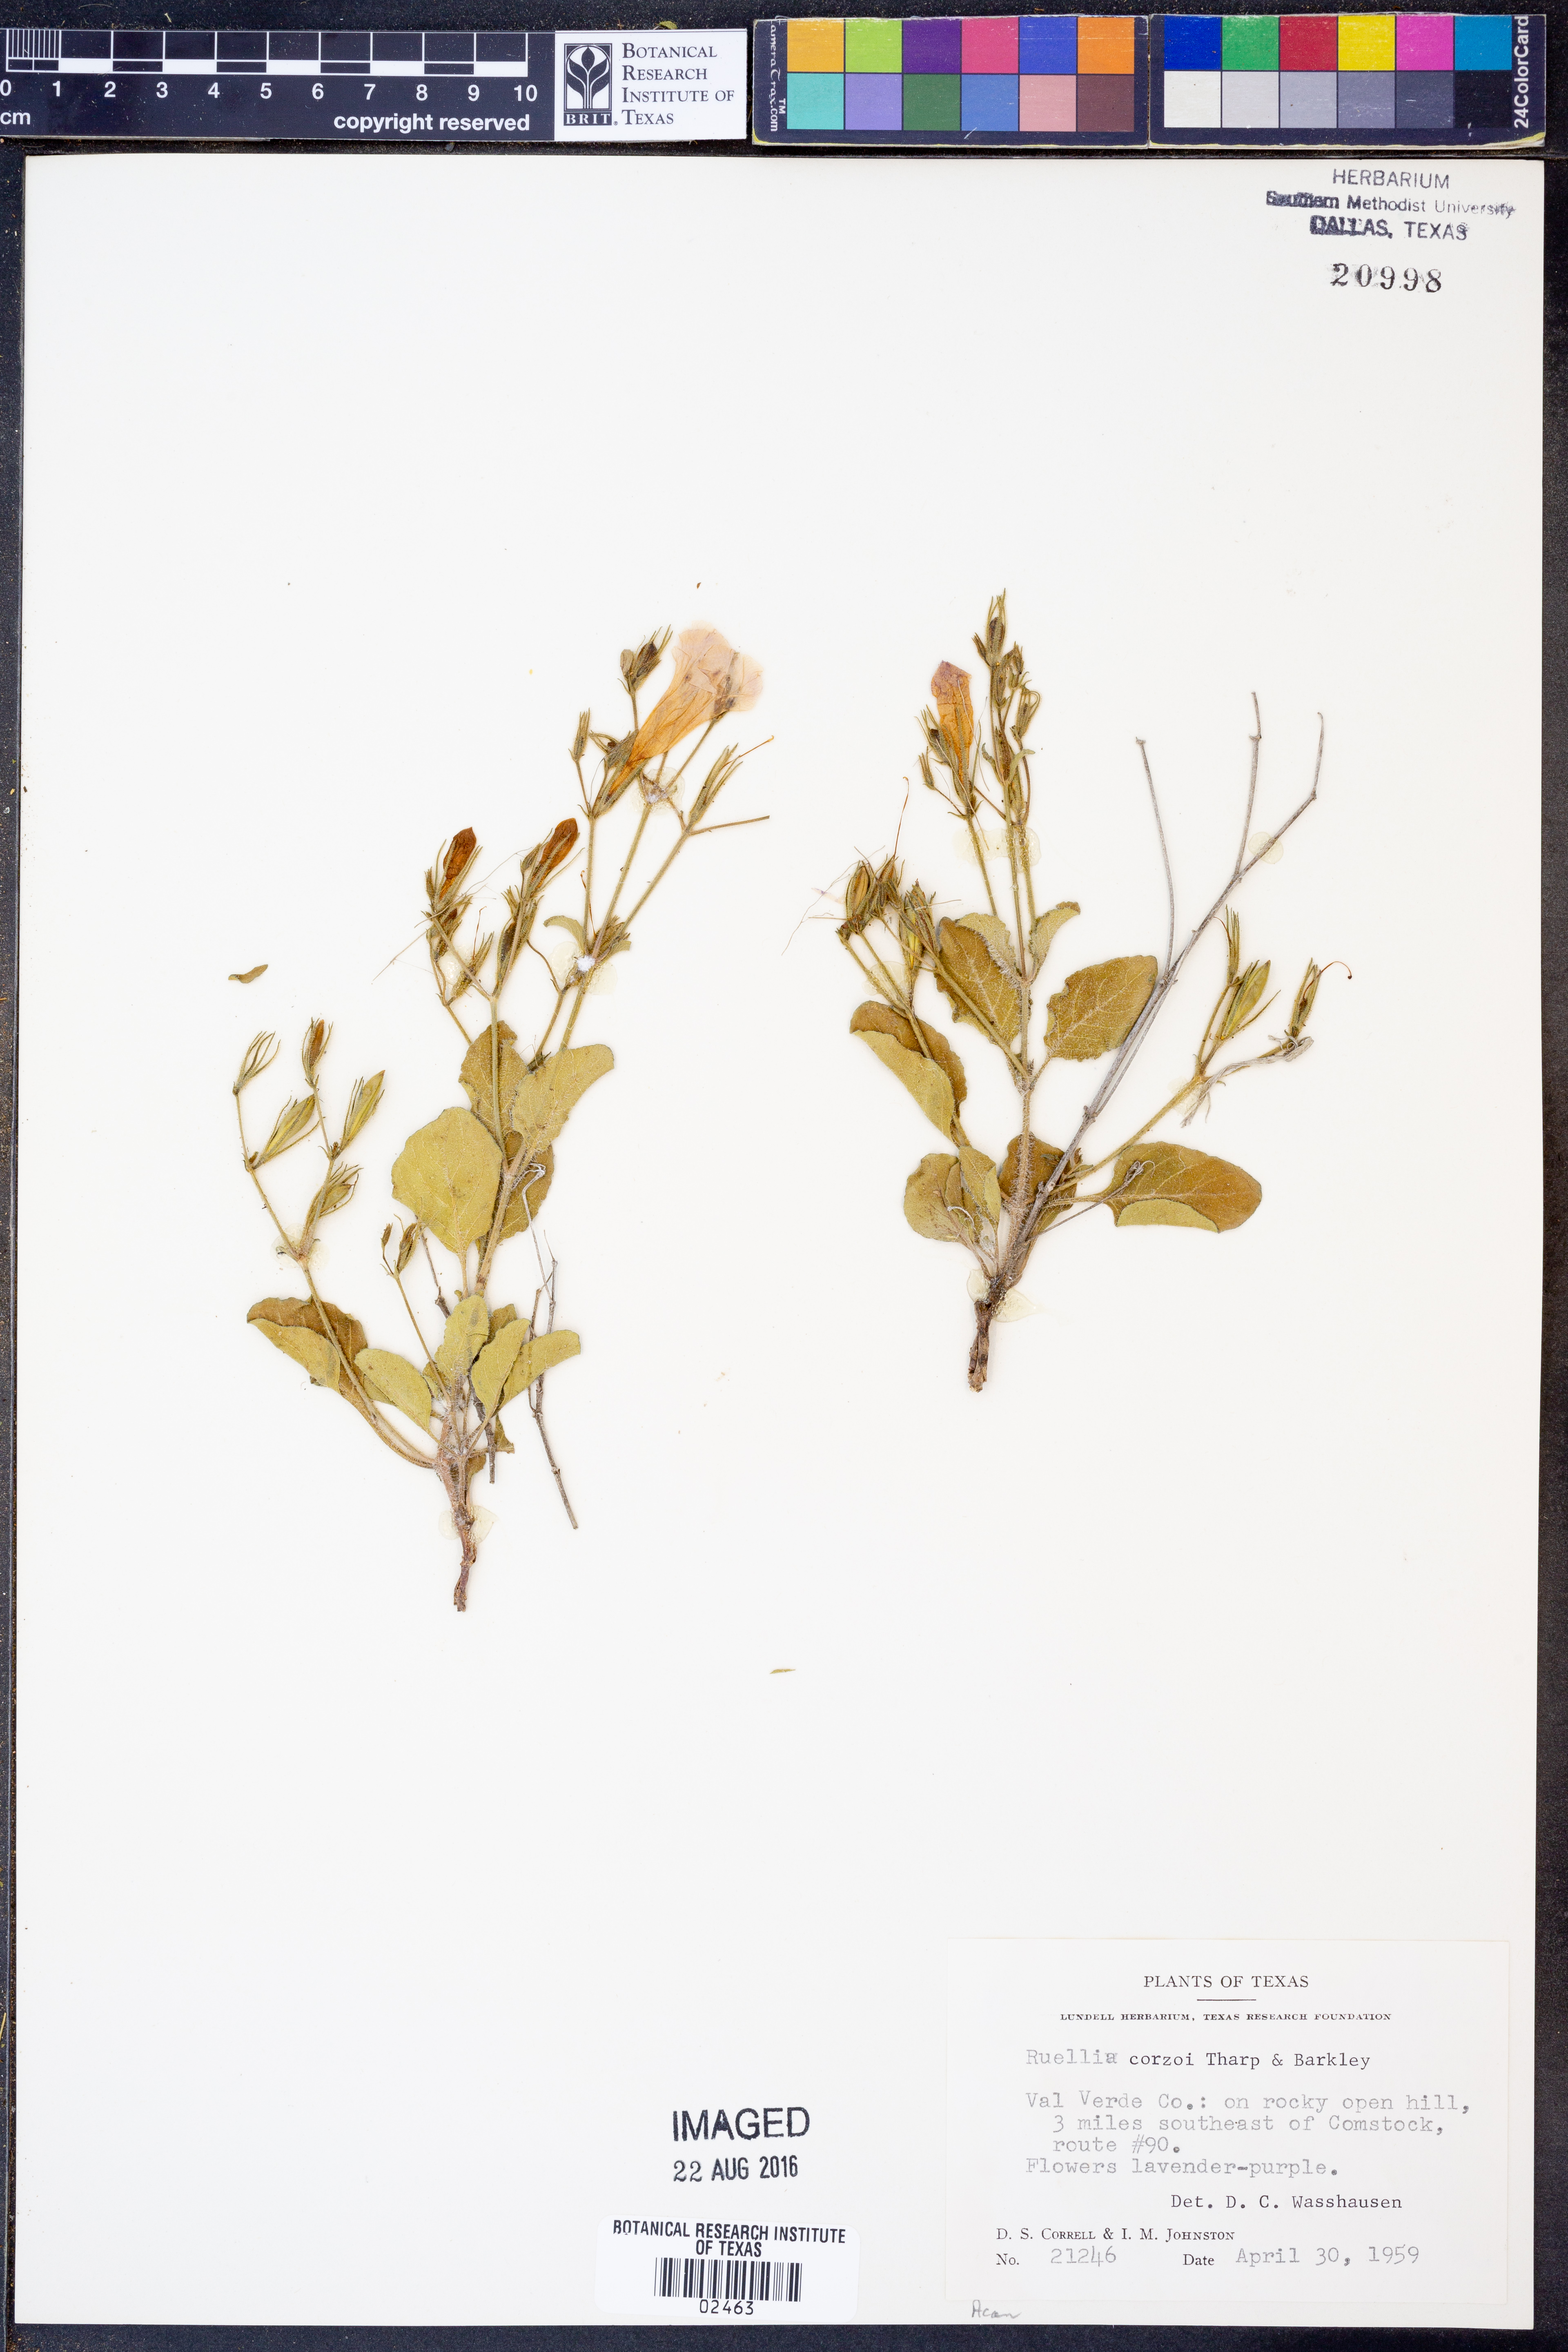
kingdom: Plantae
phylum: Tracheophyta
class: Magnoliopsida
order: Lamiales
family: Acanthaceae
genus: Ruellia
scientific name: Ruellia corzoi
